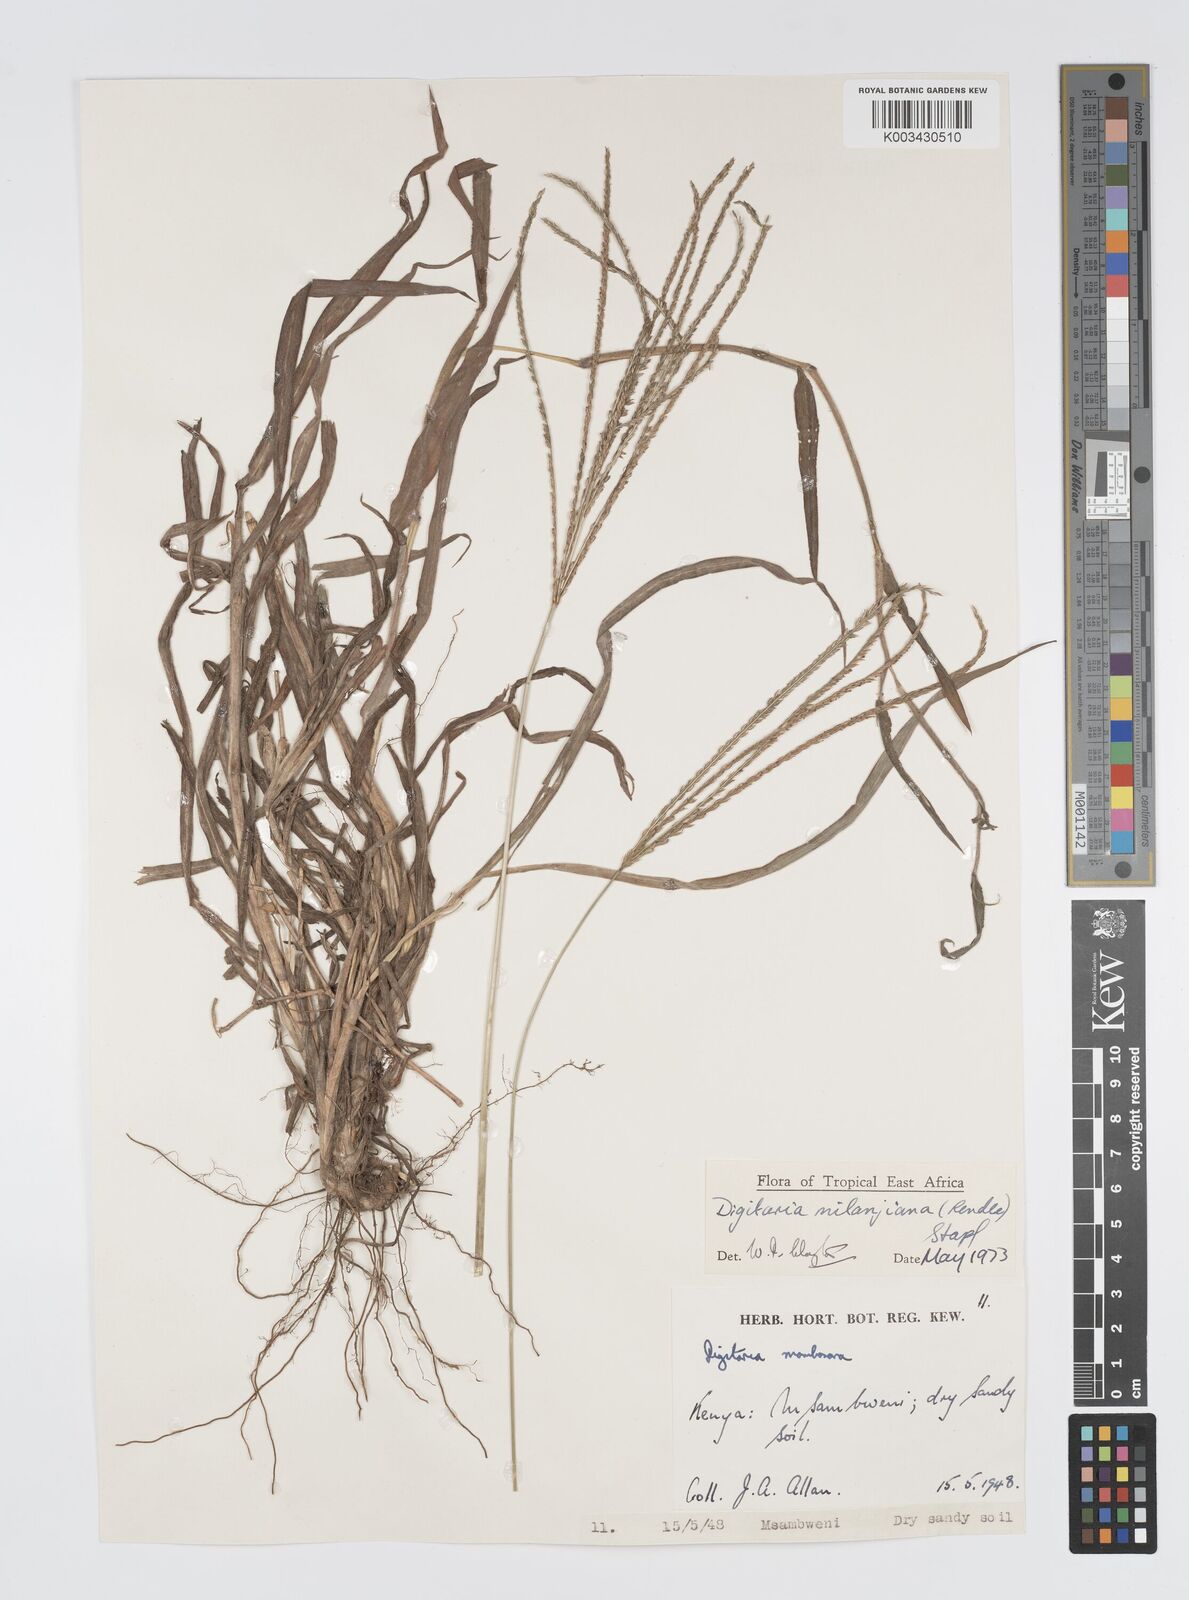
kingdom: Plantae
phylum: Tracheophyta
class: Liliopsida
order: Poales
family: Poaceae
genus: Digitaria
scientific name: Digitaria milanjiana
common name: Madagascar crabgrass
